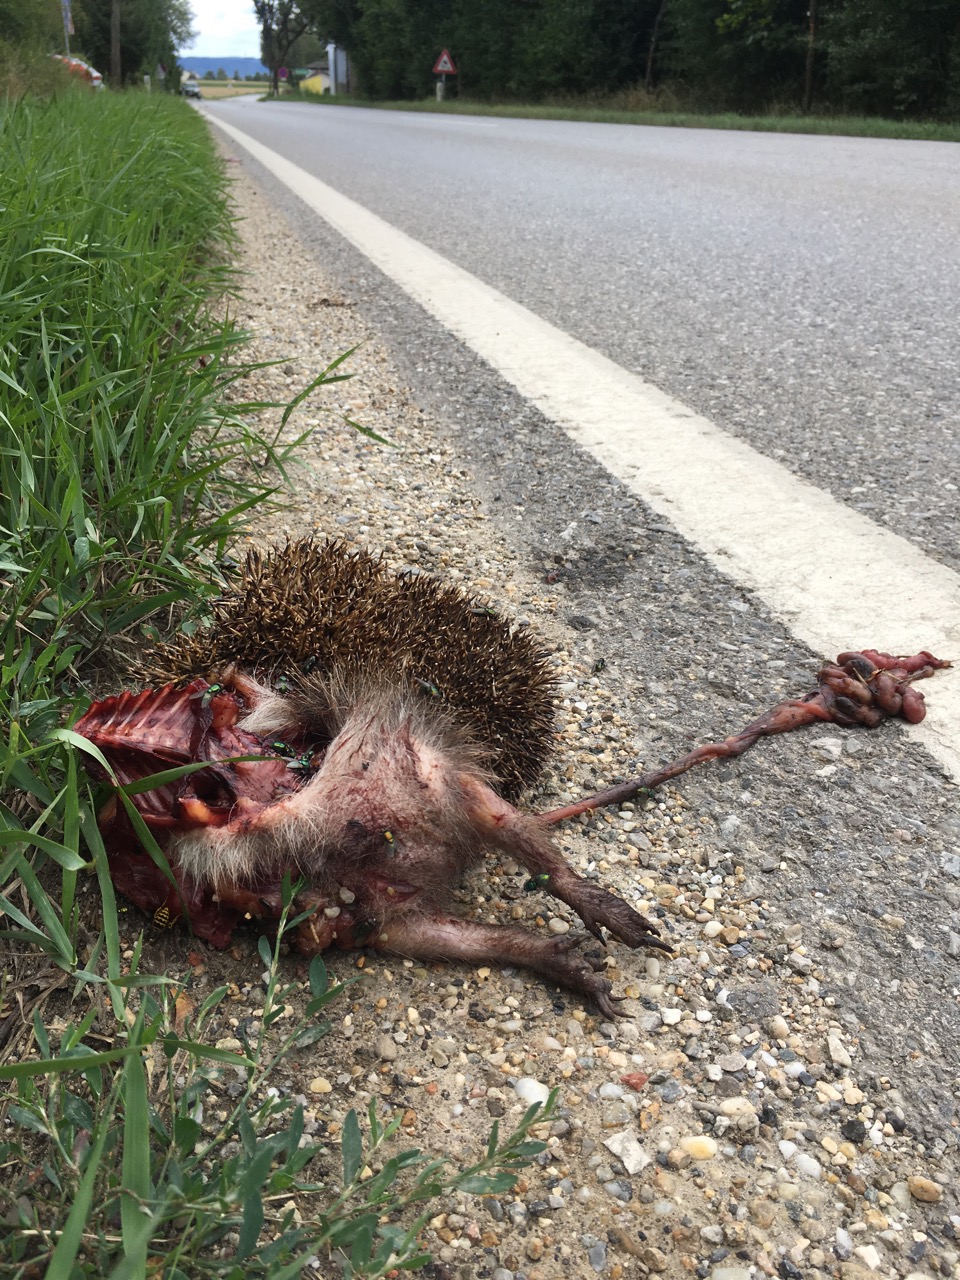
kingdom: Animalia
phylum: Chordata
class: Mammalia
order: Erinaceomorpha
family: Erinaceidae
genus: Erinaceus
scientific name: Erinaceus
